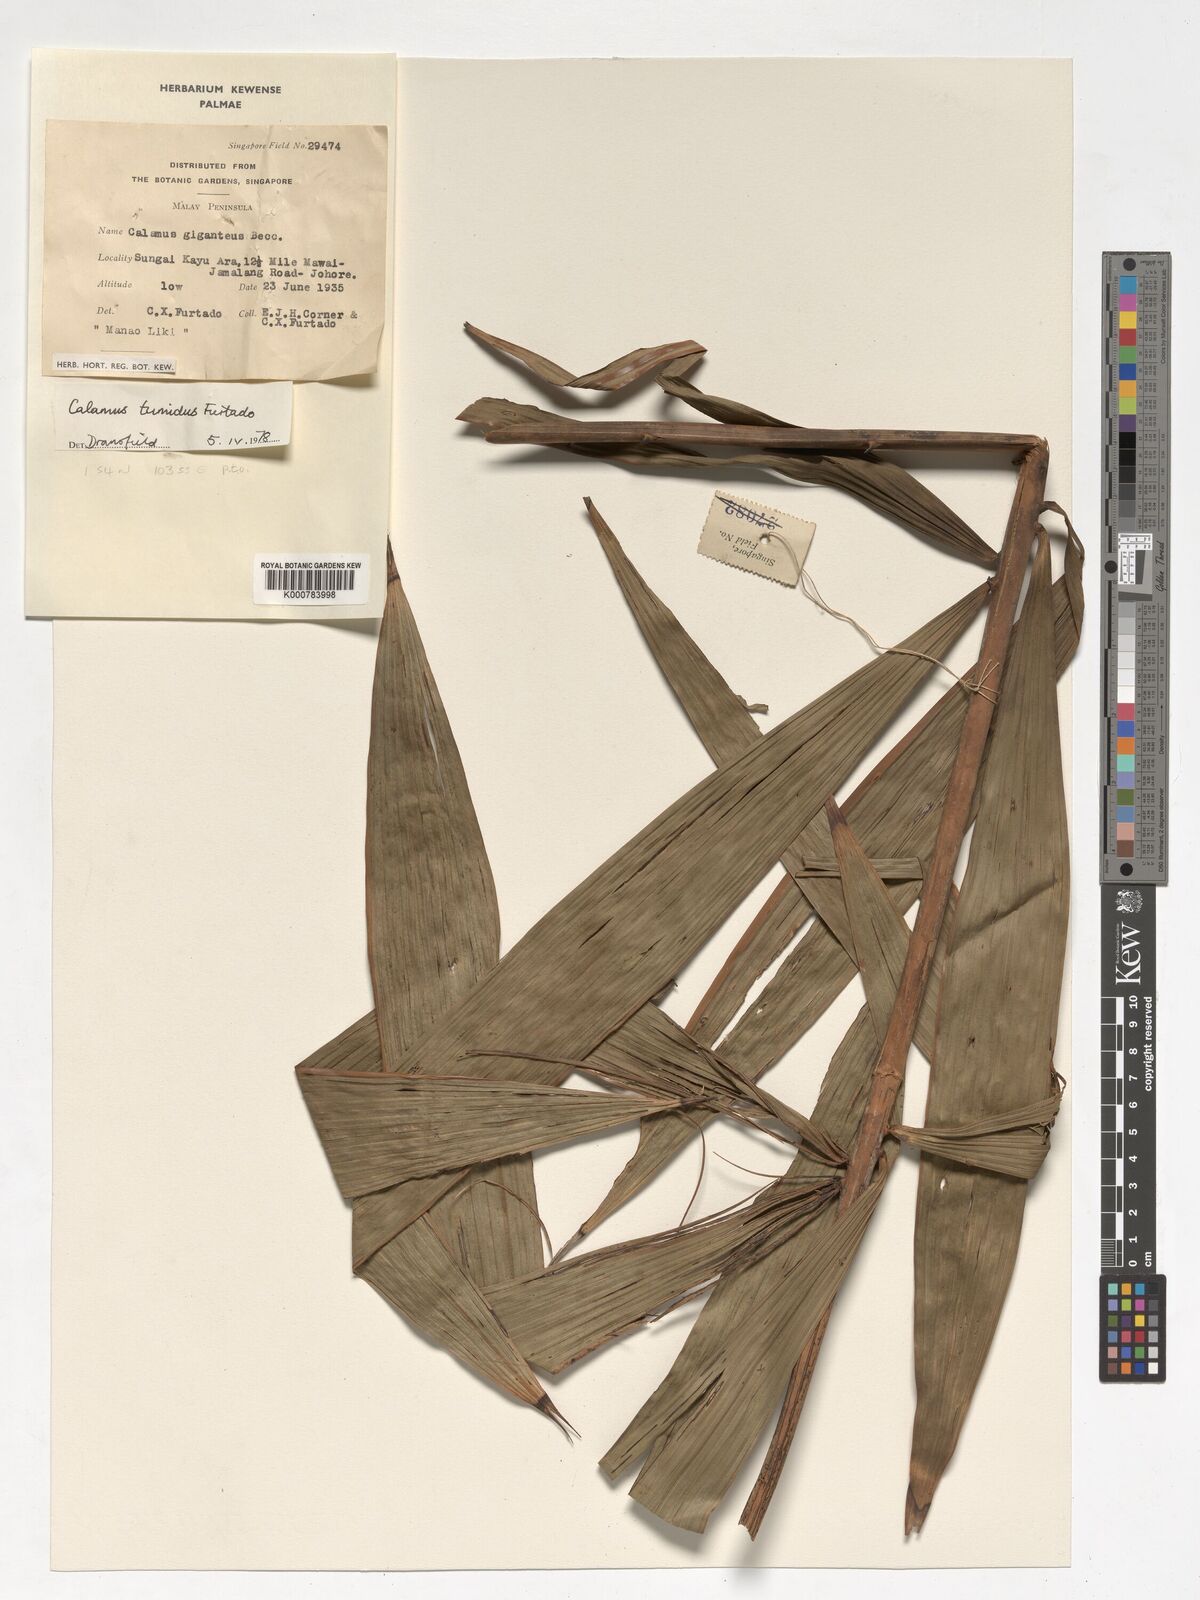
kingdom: Plantae
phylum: Tracheophyta
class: Liliopsida
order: Arecales
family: Arecaceae
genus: Calamus
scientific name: Calamus tumidus
